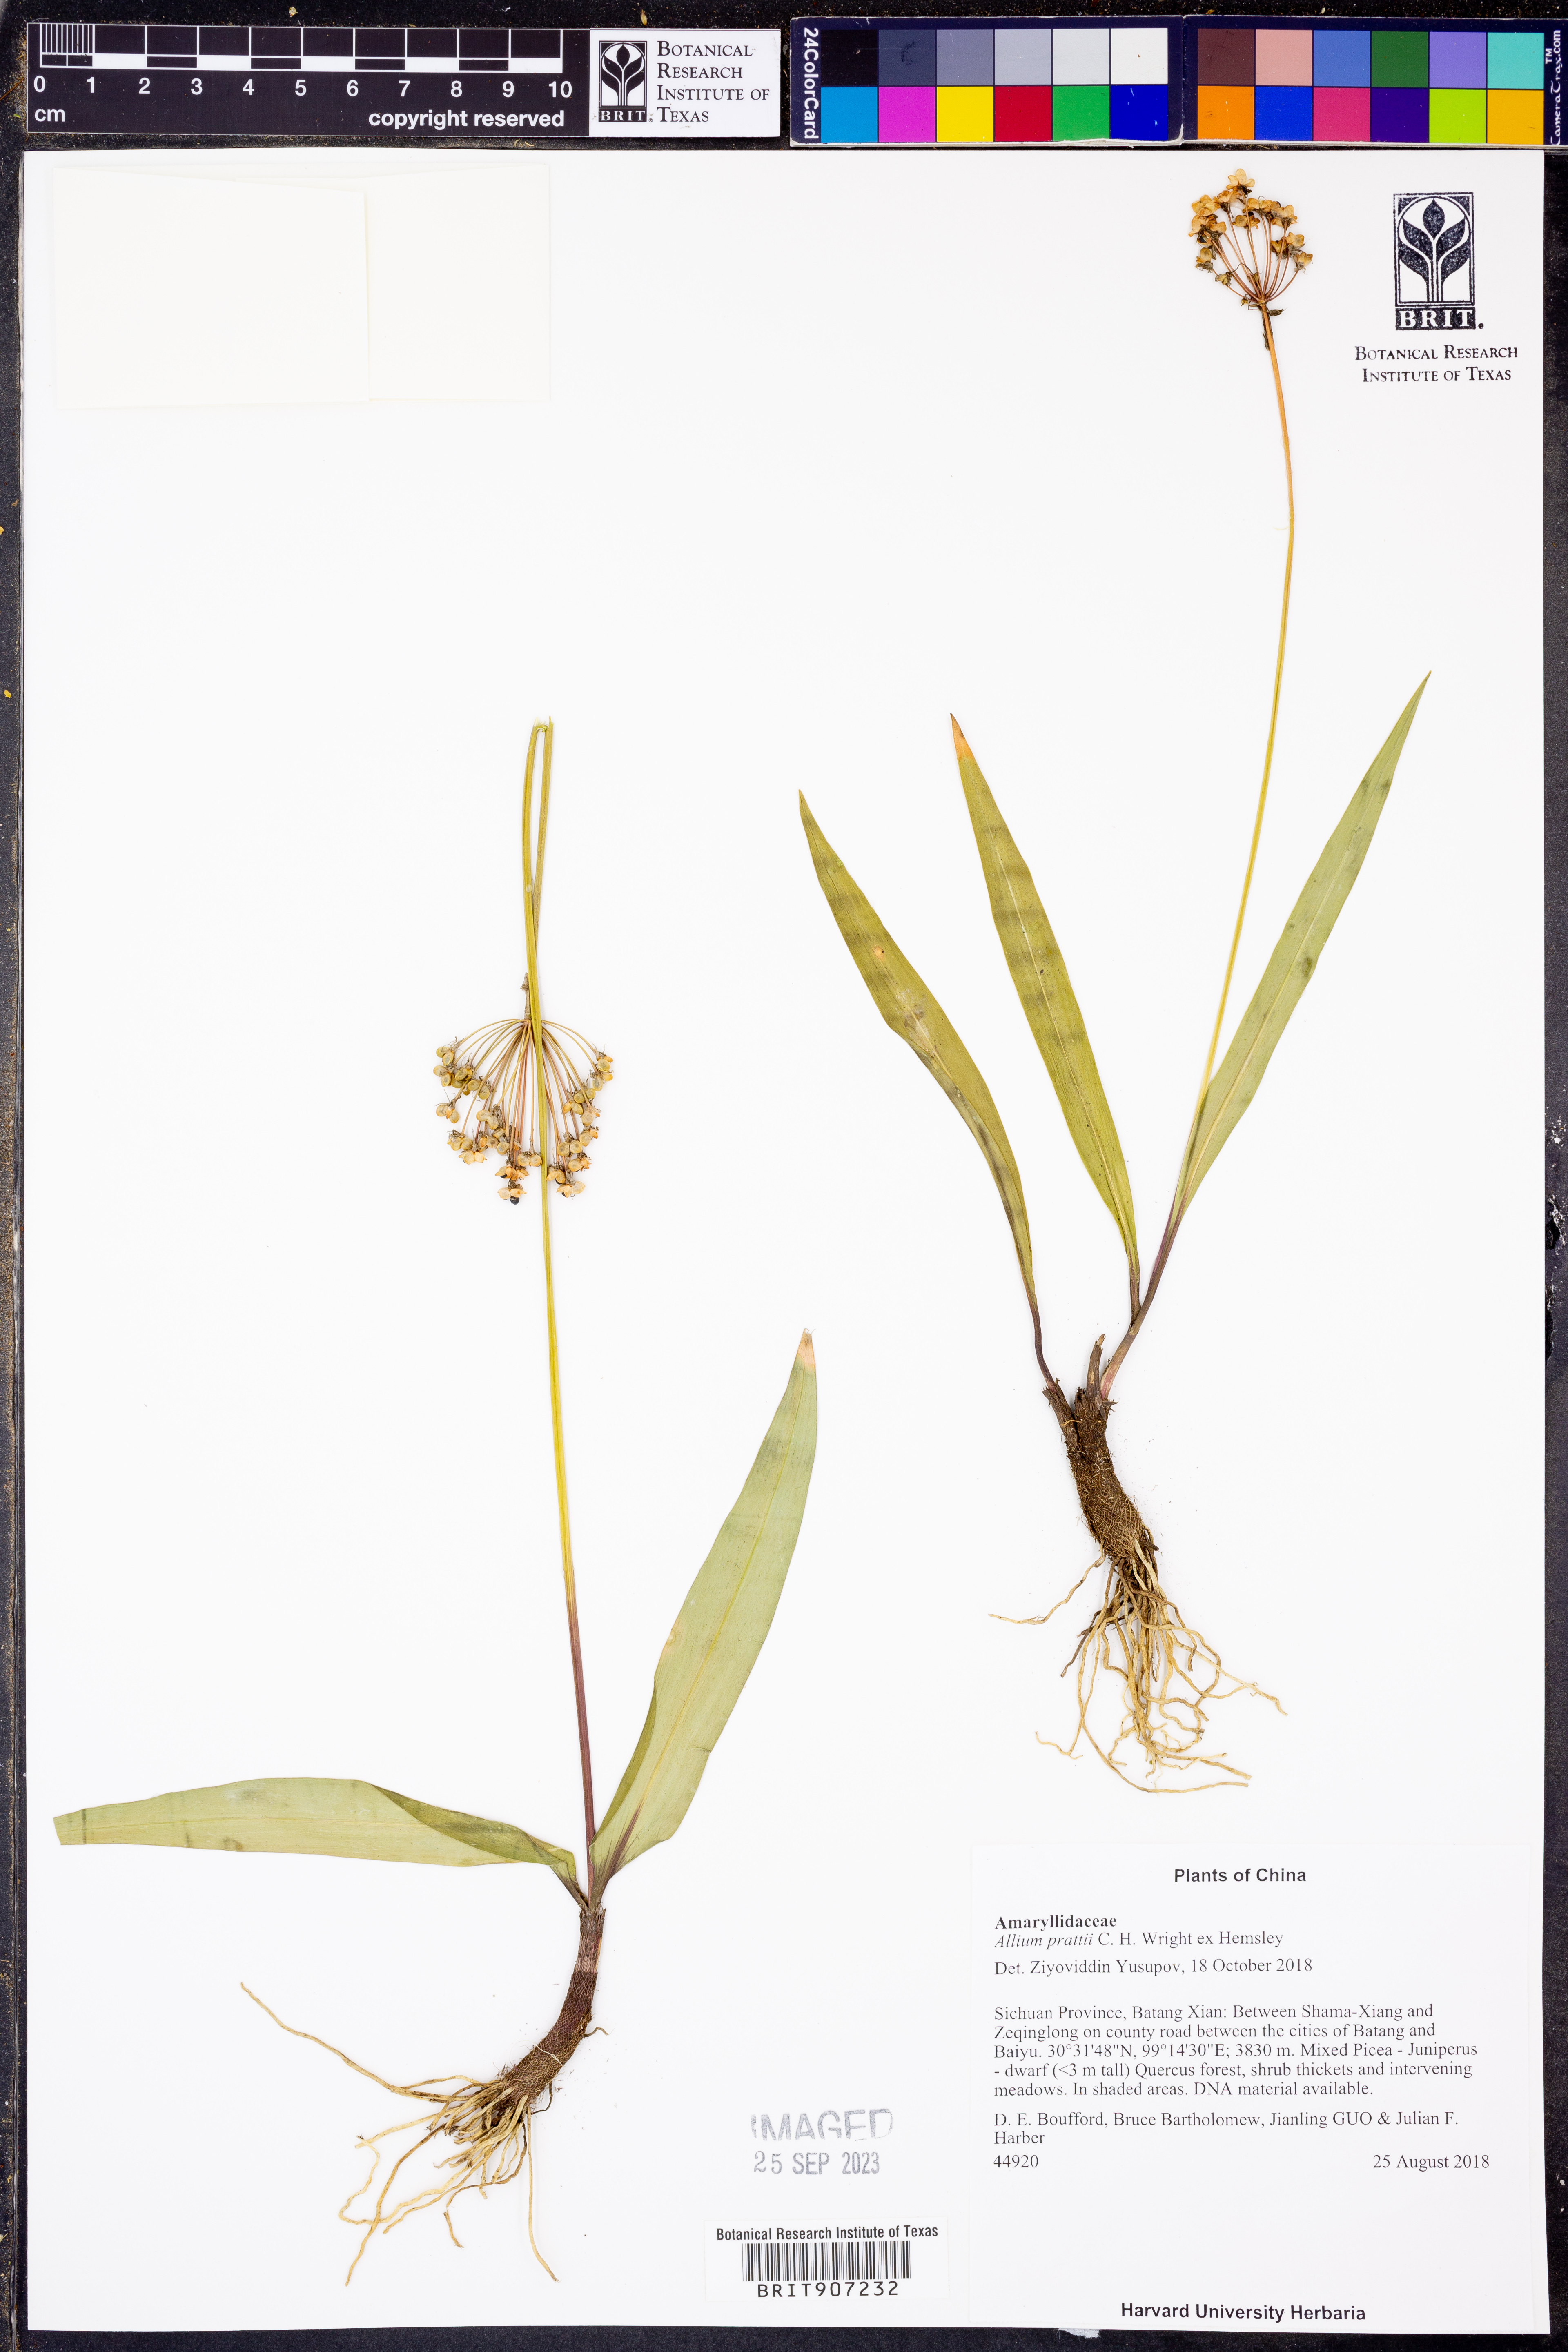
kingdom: Plantae
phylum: Tracheophyta
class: Liliopsida
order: Asparagales
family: Amaryllidaceae
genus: Allium
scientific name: Allium prattii
